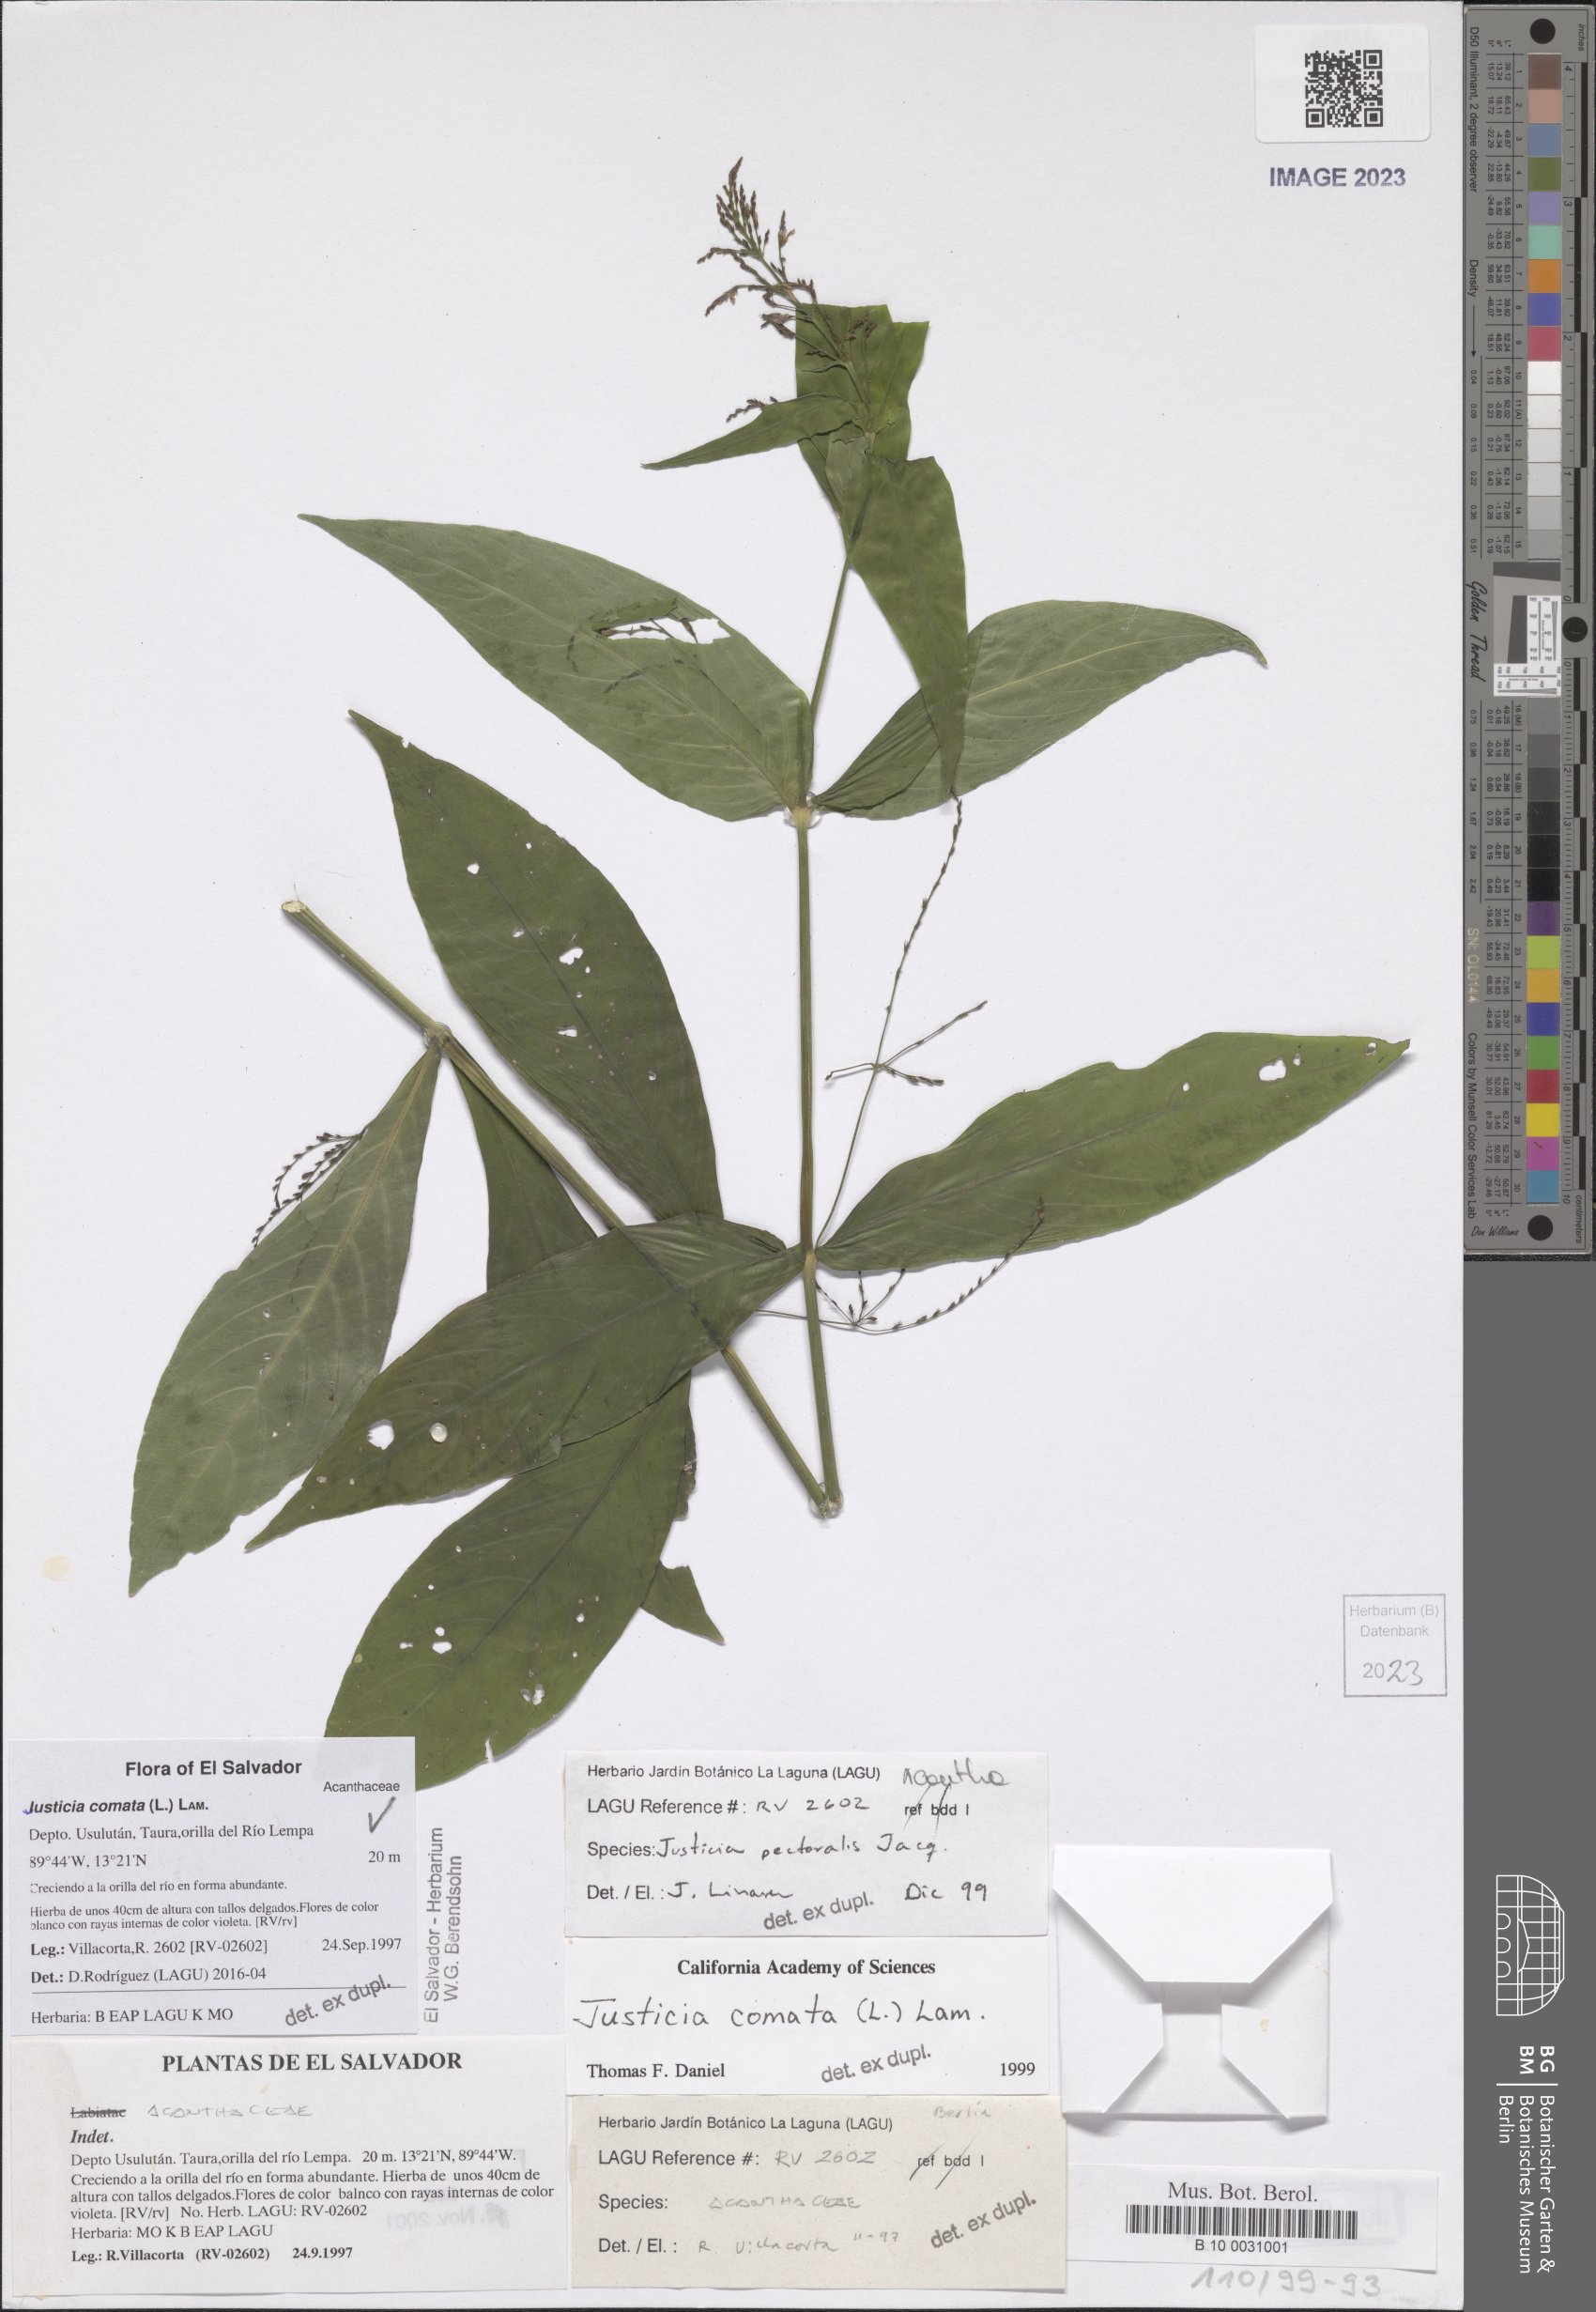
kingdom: Plantae
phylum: Tracheophyta
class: Magnoliopsida
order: Lamiales
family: Acanthaceae
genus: Dianthera
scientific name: Dianthera comata
